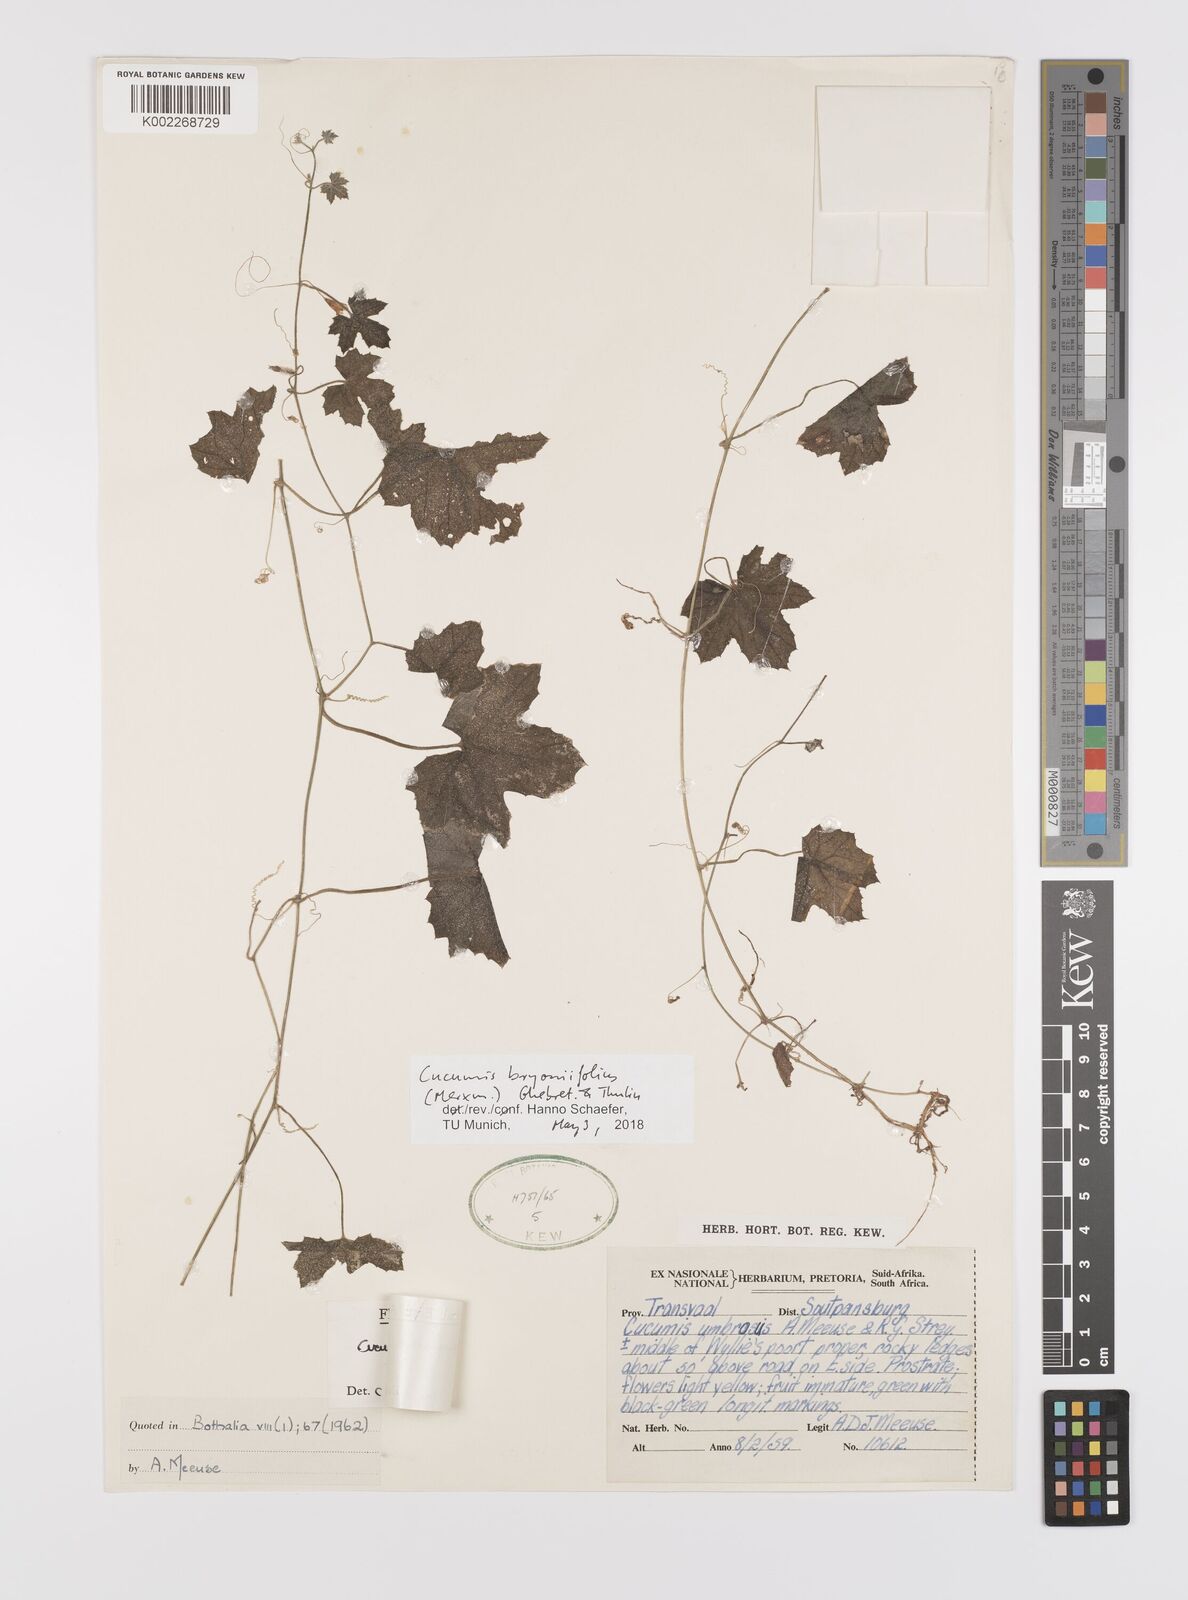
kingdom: Plantae
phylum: Tracheophyta
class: Magnoliopsida
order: Cucurbitales
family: Cucurbitaceae
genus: Cucumis
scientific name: Cucumis bryoniifolius
